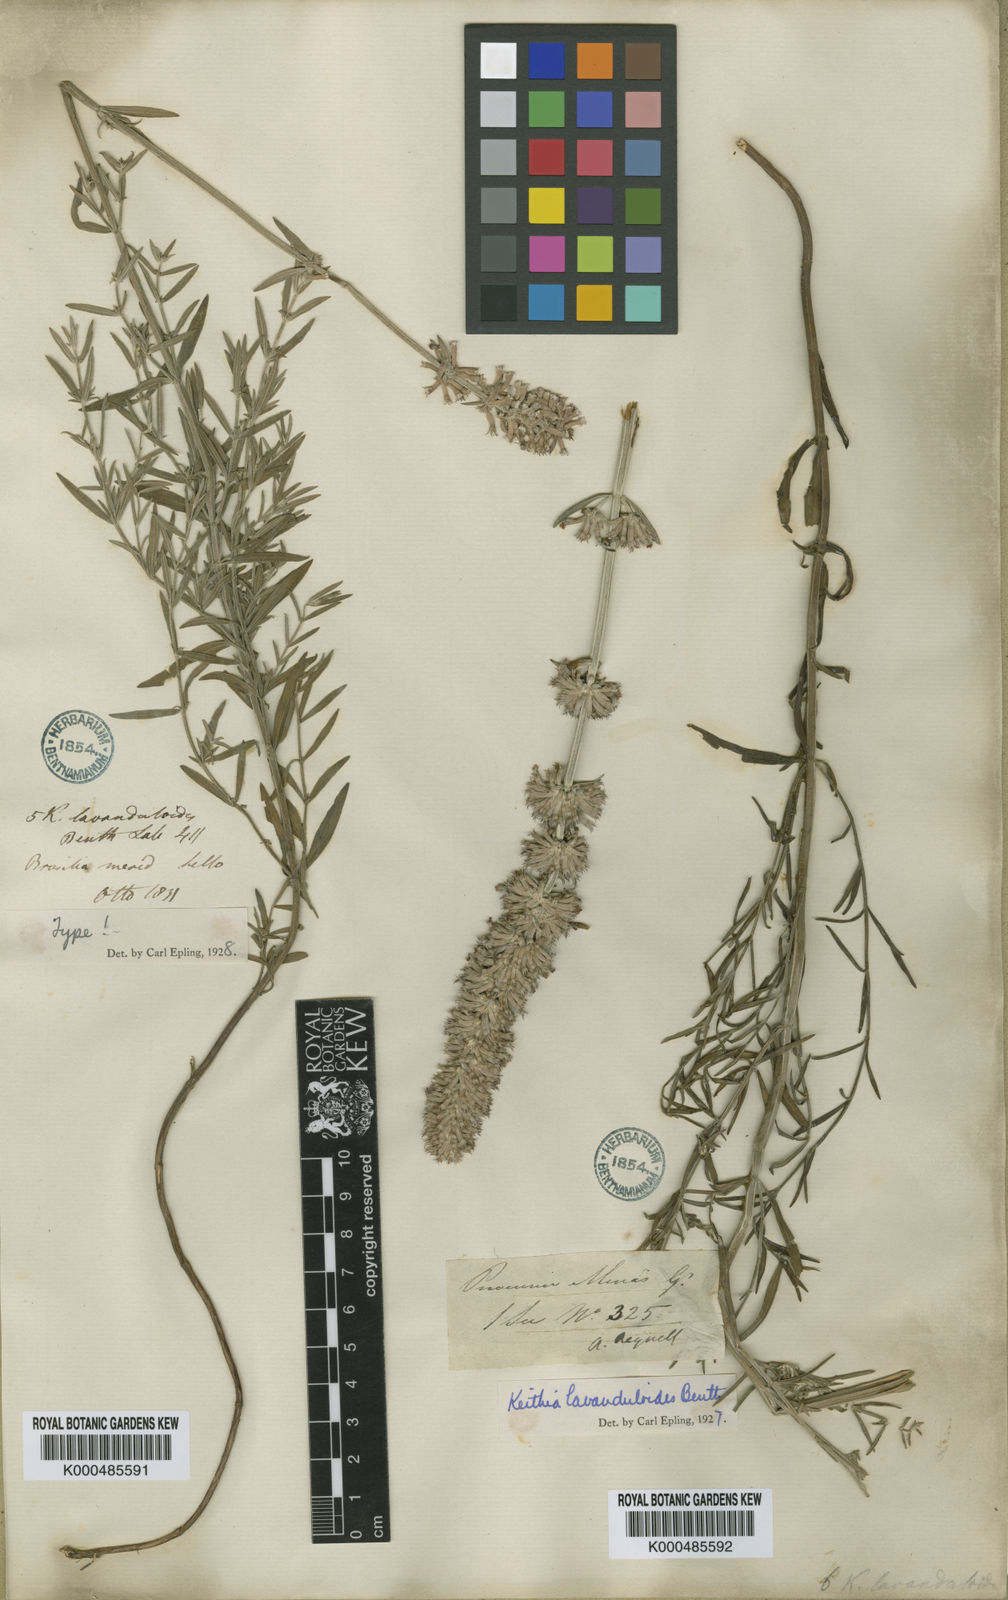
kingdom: Plantae
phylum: Tracheophyta
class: Magnoliopsida
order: Lamiales
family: Lamiaceae
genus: Rhabdocaulon
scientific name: Rhabdocaulon lavanduloides
